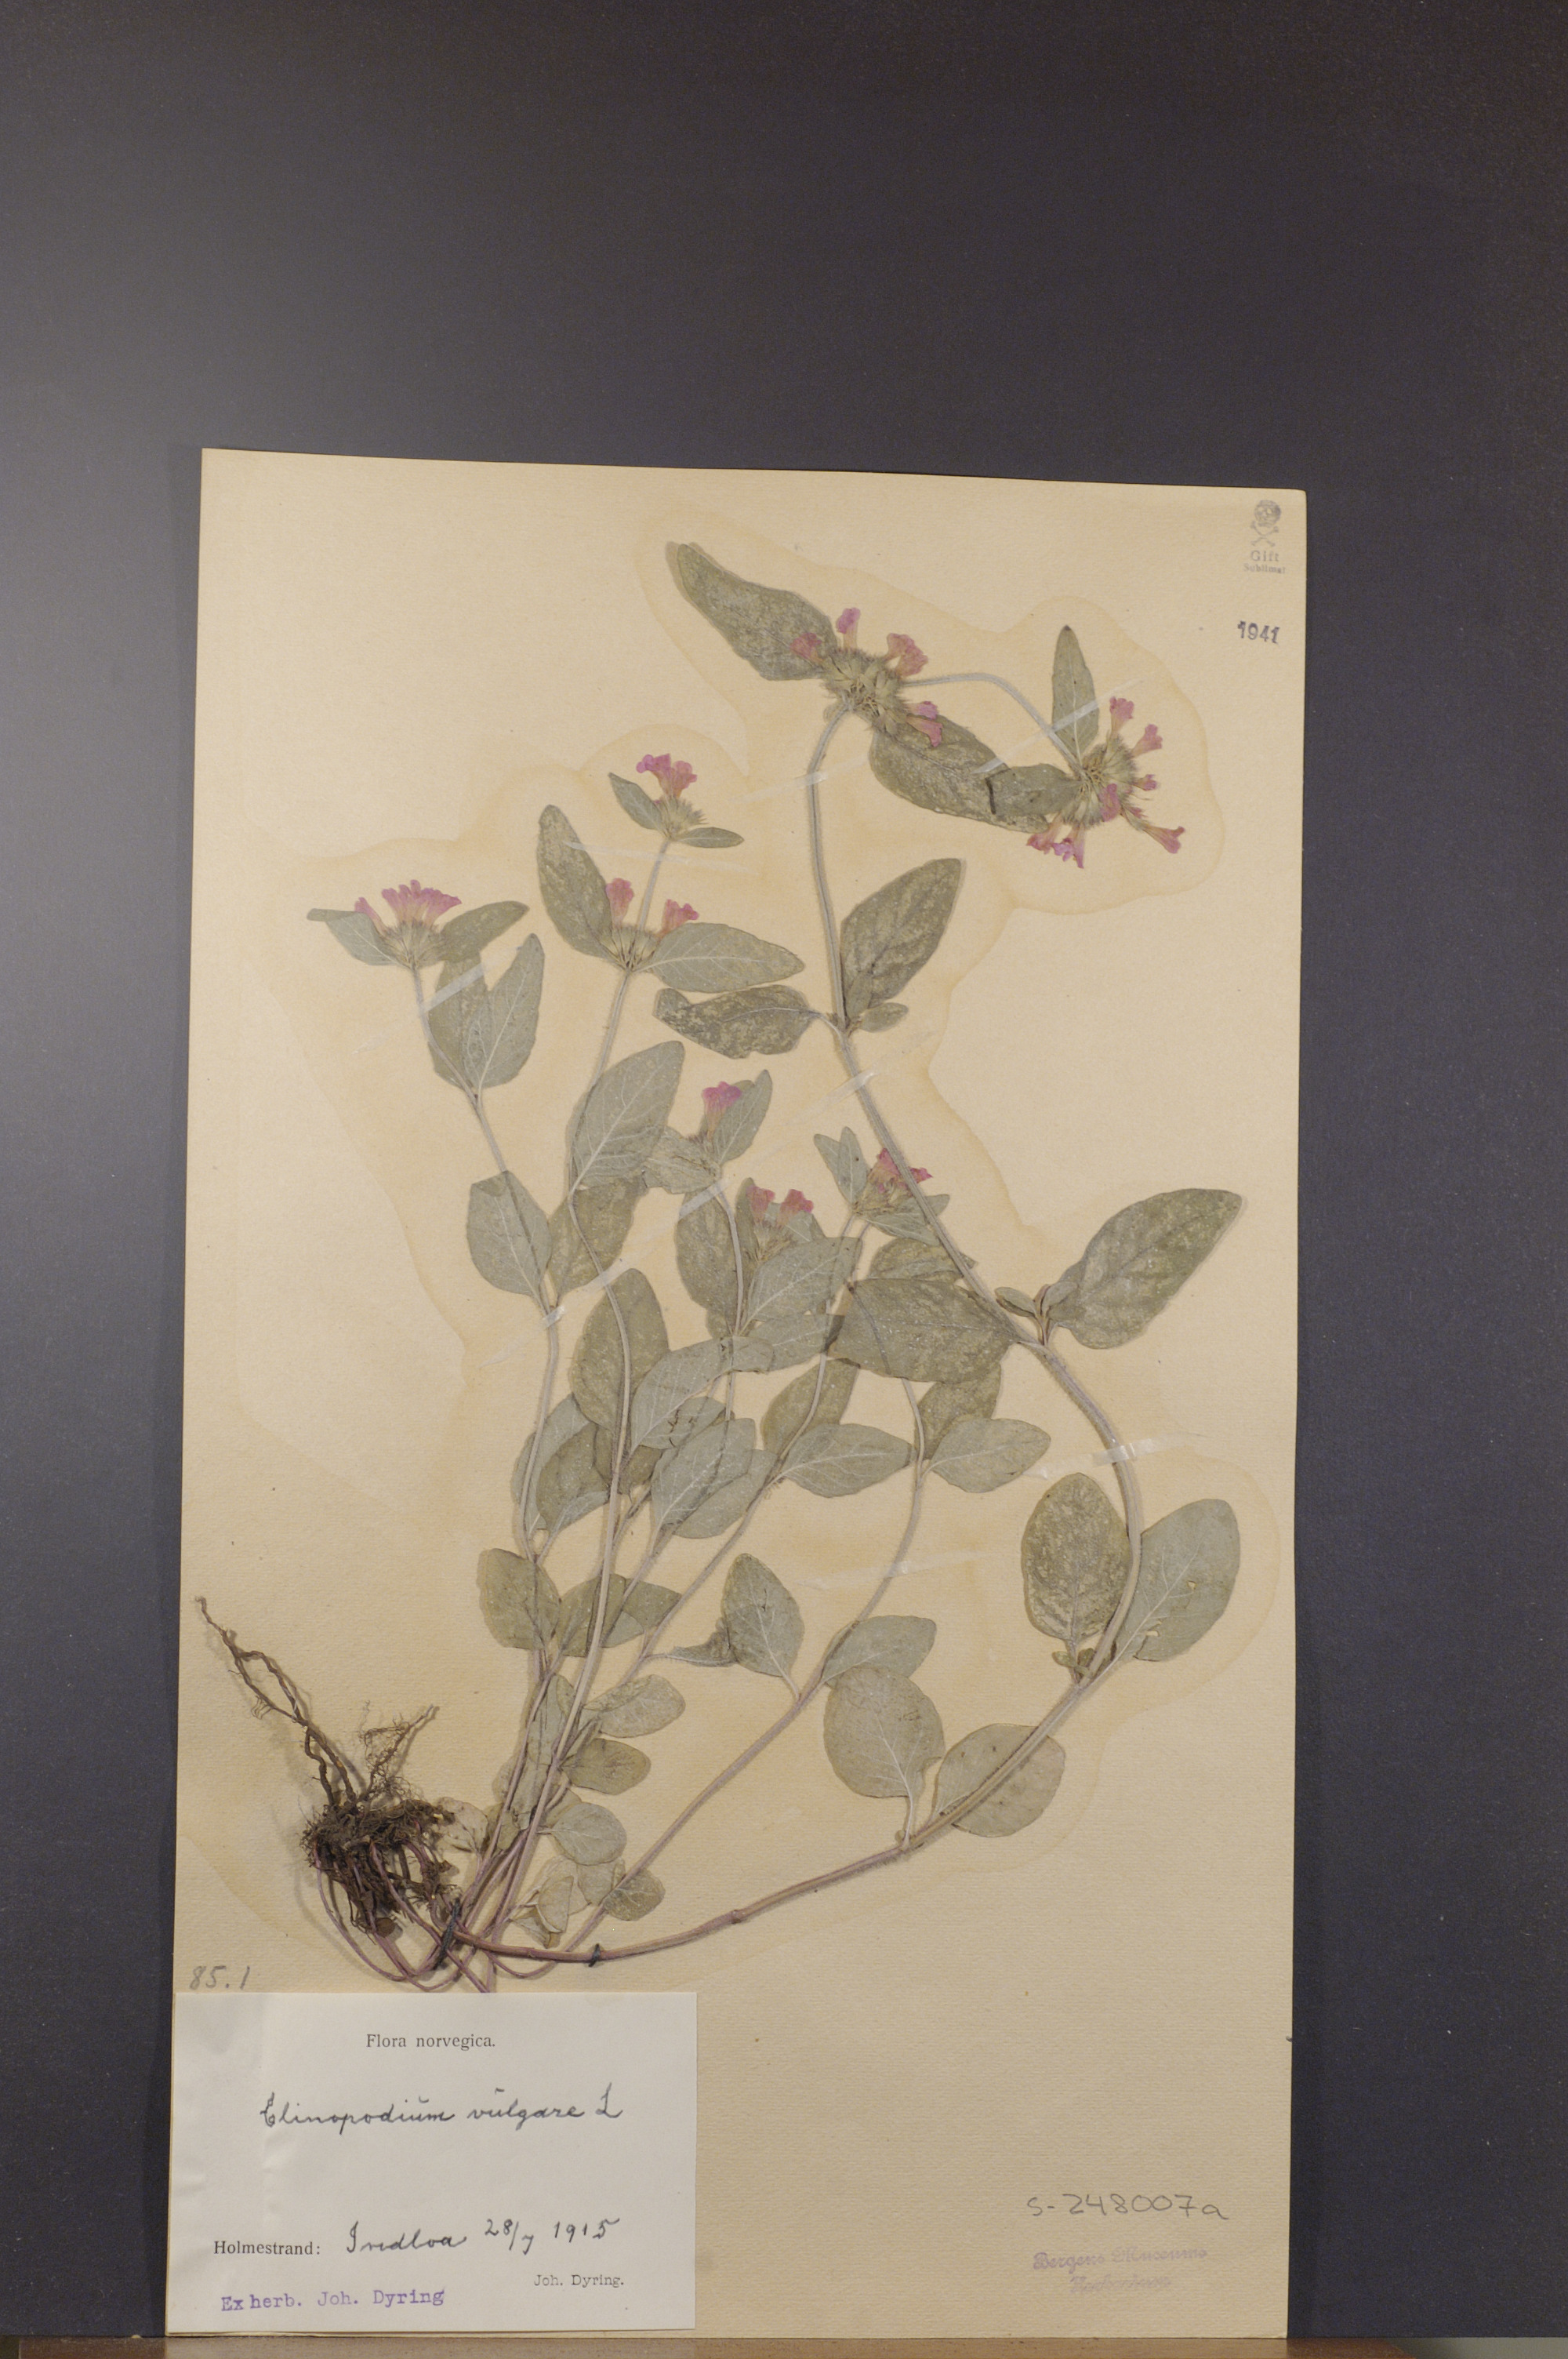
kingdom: Plantae
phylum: Tracheophyta
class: Magnoliopsida
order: Lamiales
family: Lamiaceae
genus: Clinopodium
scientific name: Clinopodium vulgare
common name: Wild basil
